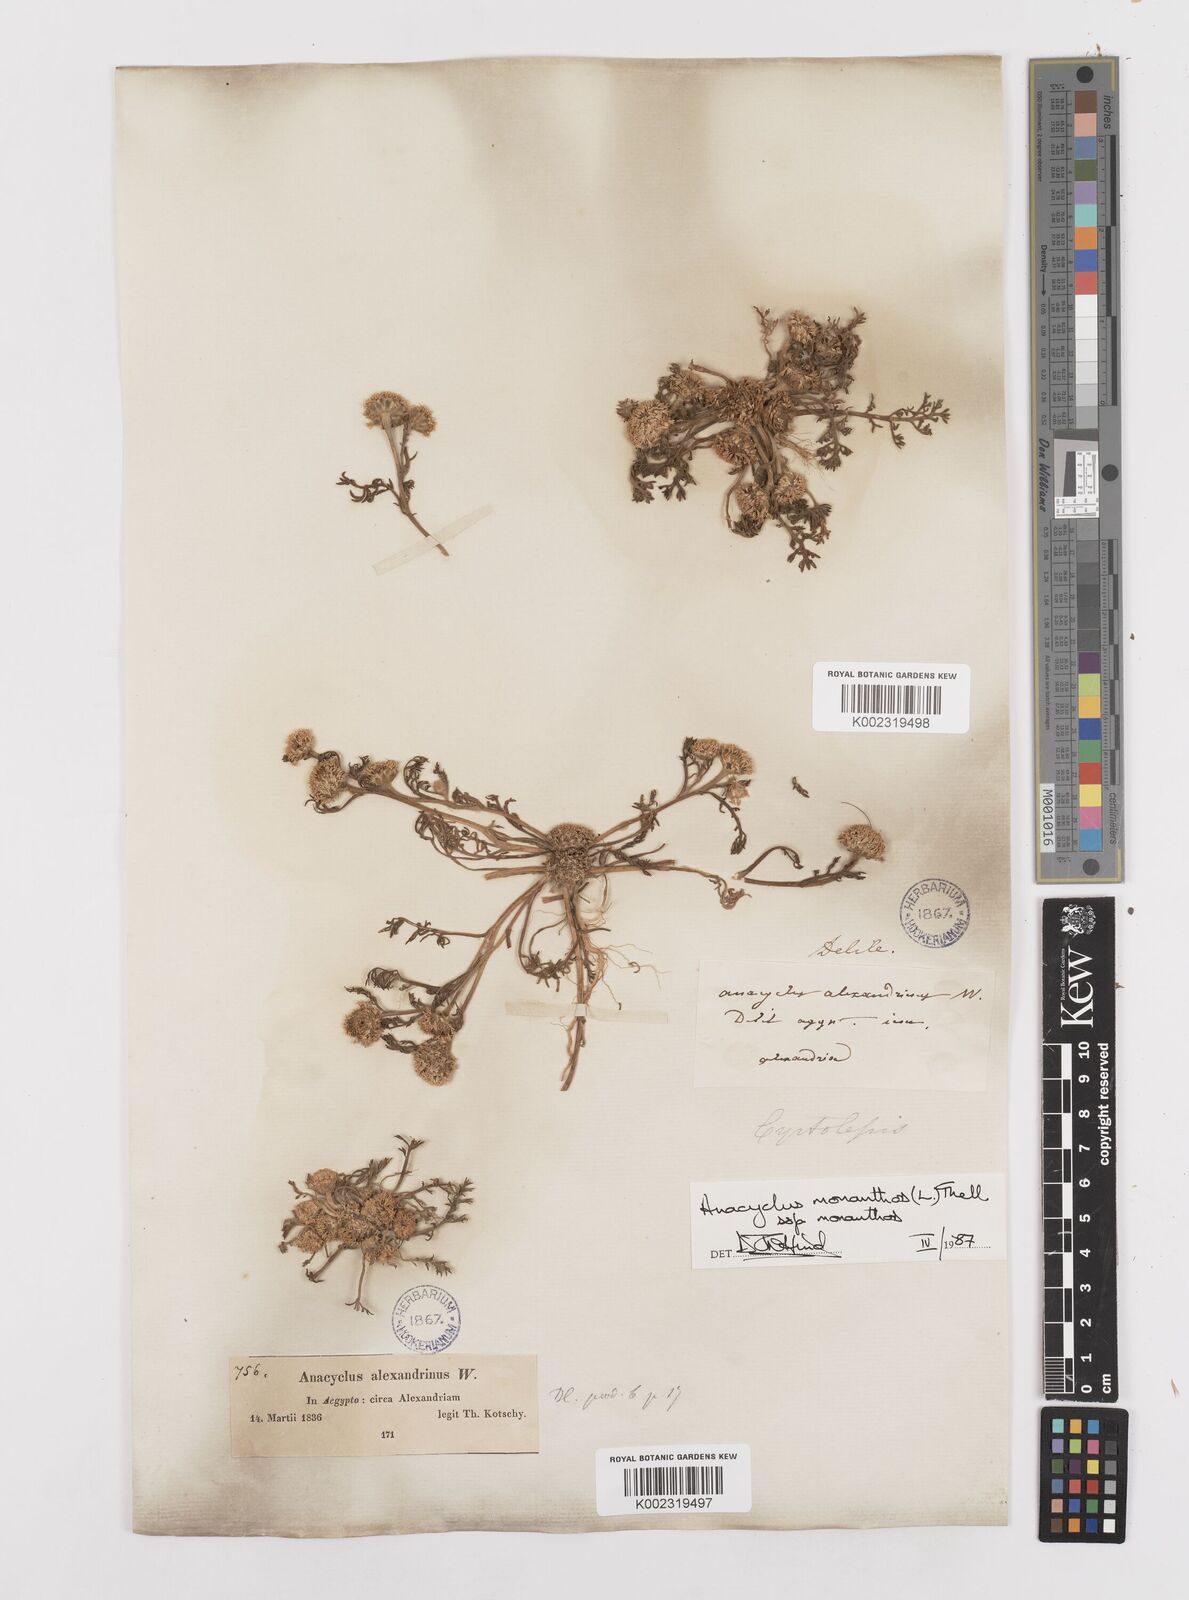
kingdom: Plantae
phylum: Tracheophyta
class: Magnoliopsida
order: Asterales
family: Asteraceae
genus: Anacyclus
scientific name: Anacyclus monanthos
